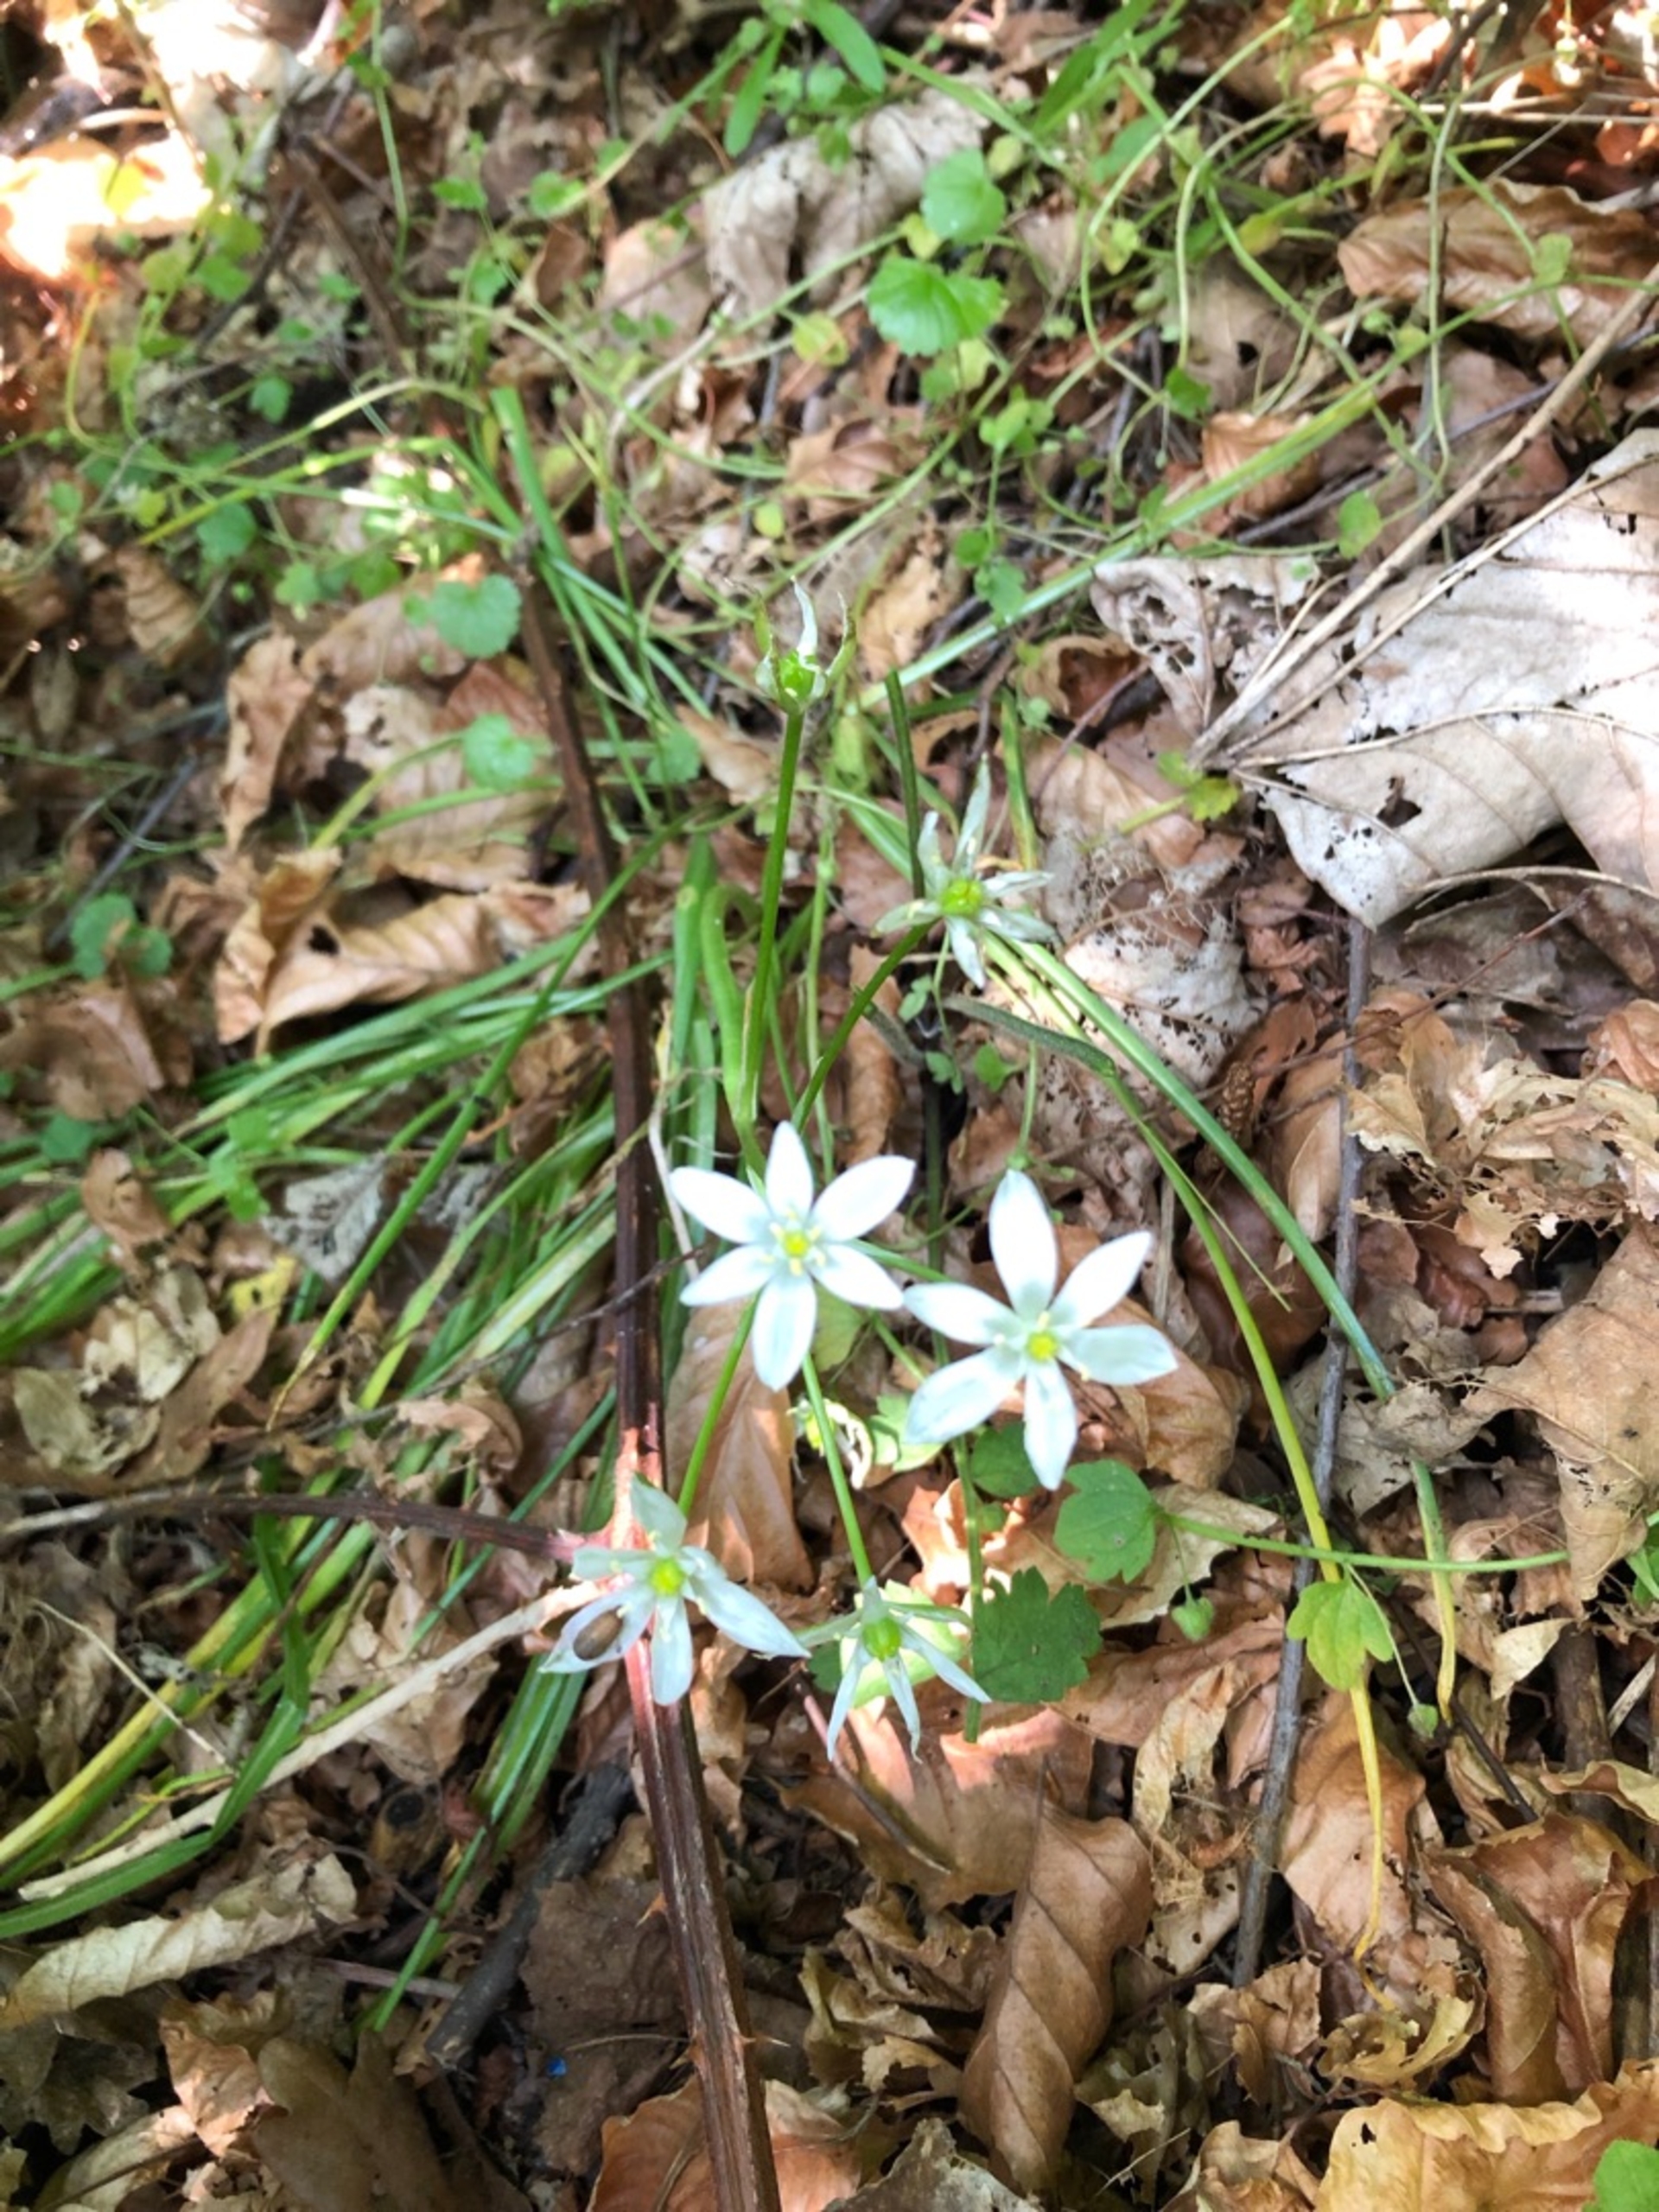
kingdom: Plantae
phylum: Tracheophyta
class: Liliopsida
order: Asparagales
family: Asparagaceae
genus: Ornithogalum
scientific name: Ornithogalum umbellatum
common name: Kost-fuglemælk
